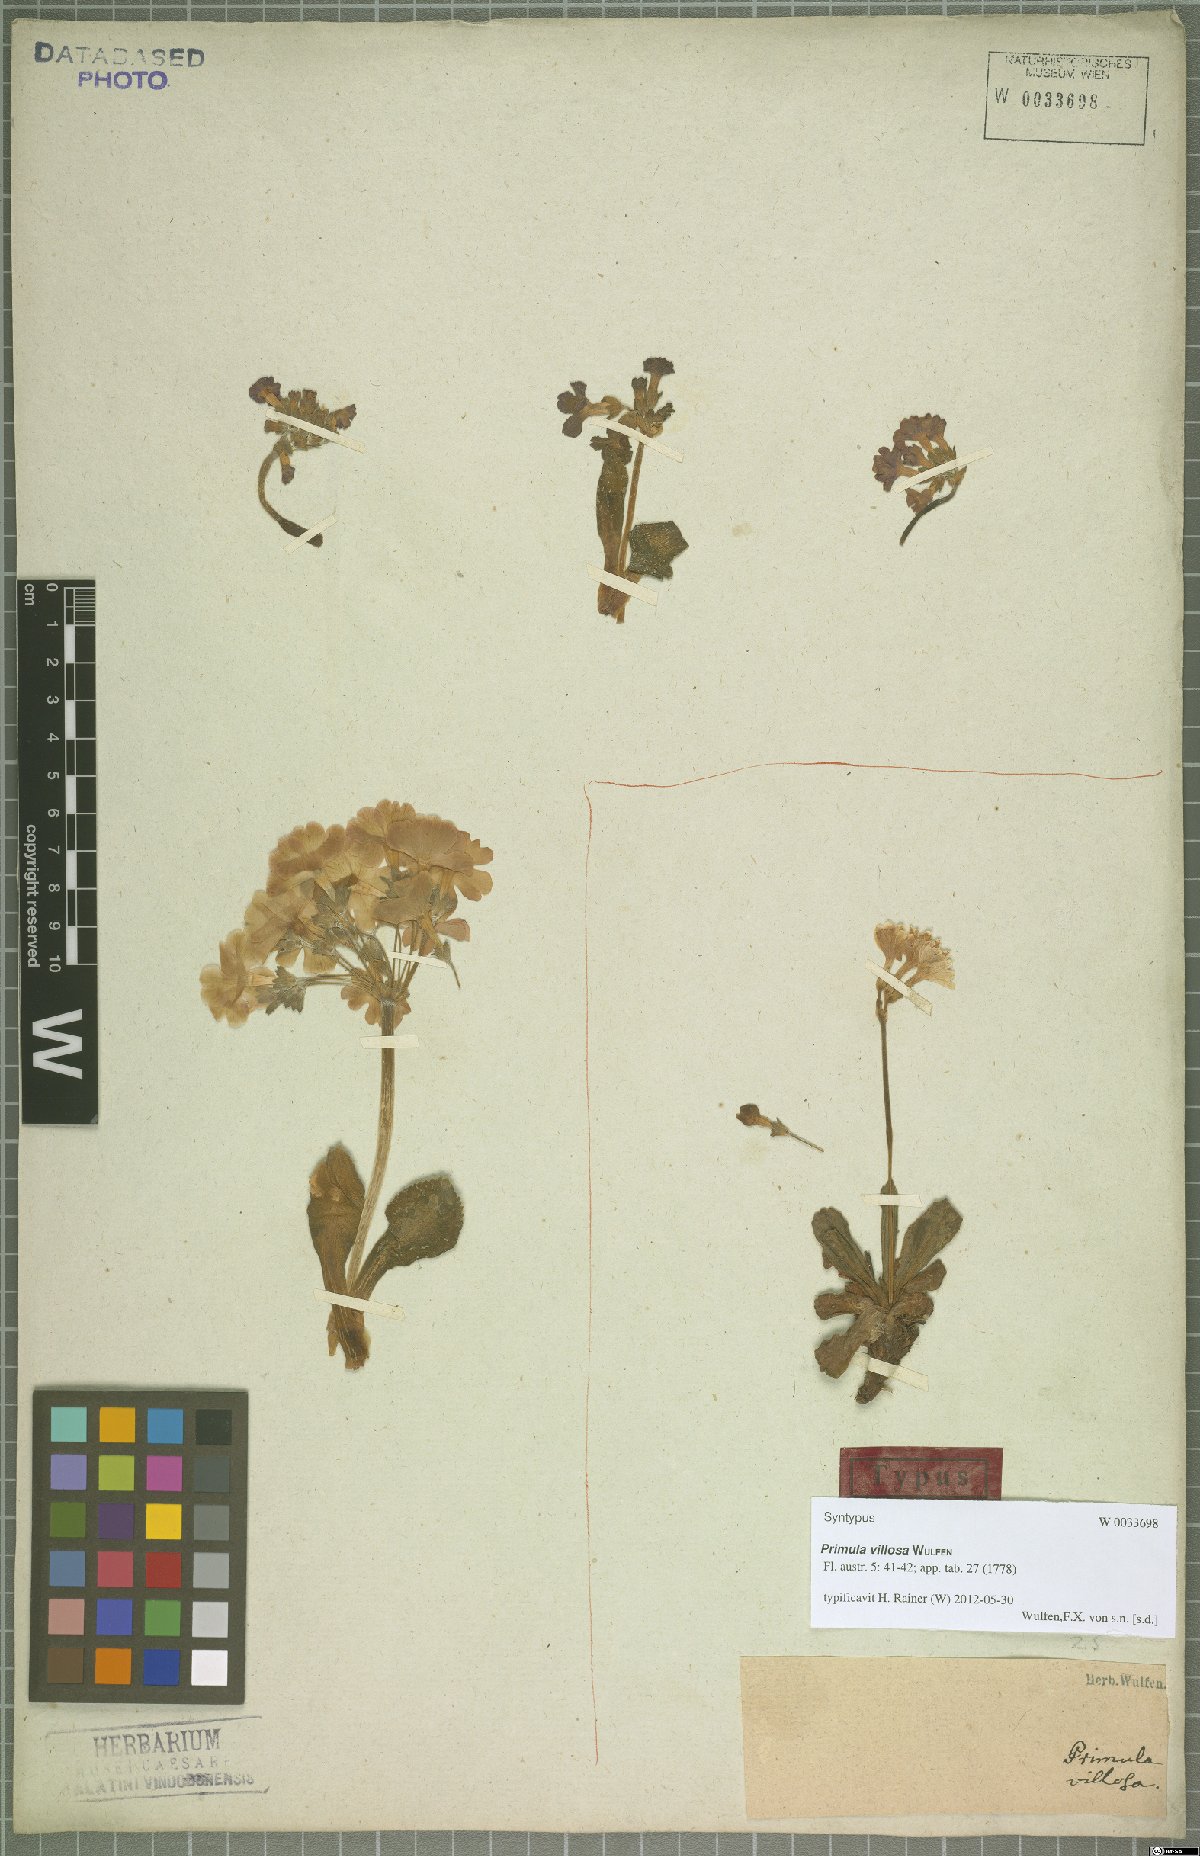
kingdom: Plantae
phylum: Tracheophyta
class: Magnoliopsida
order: Ericales
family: Primulaceae
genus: Primula
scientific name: Primula villosa
